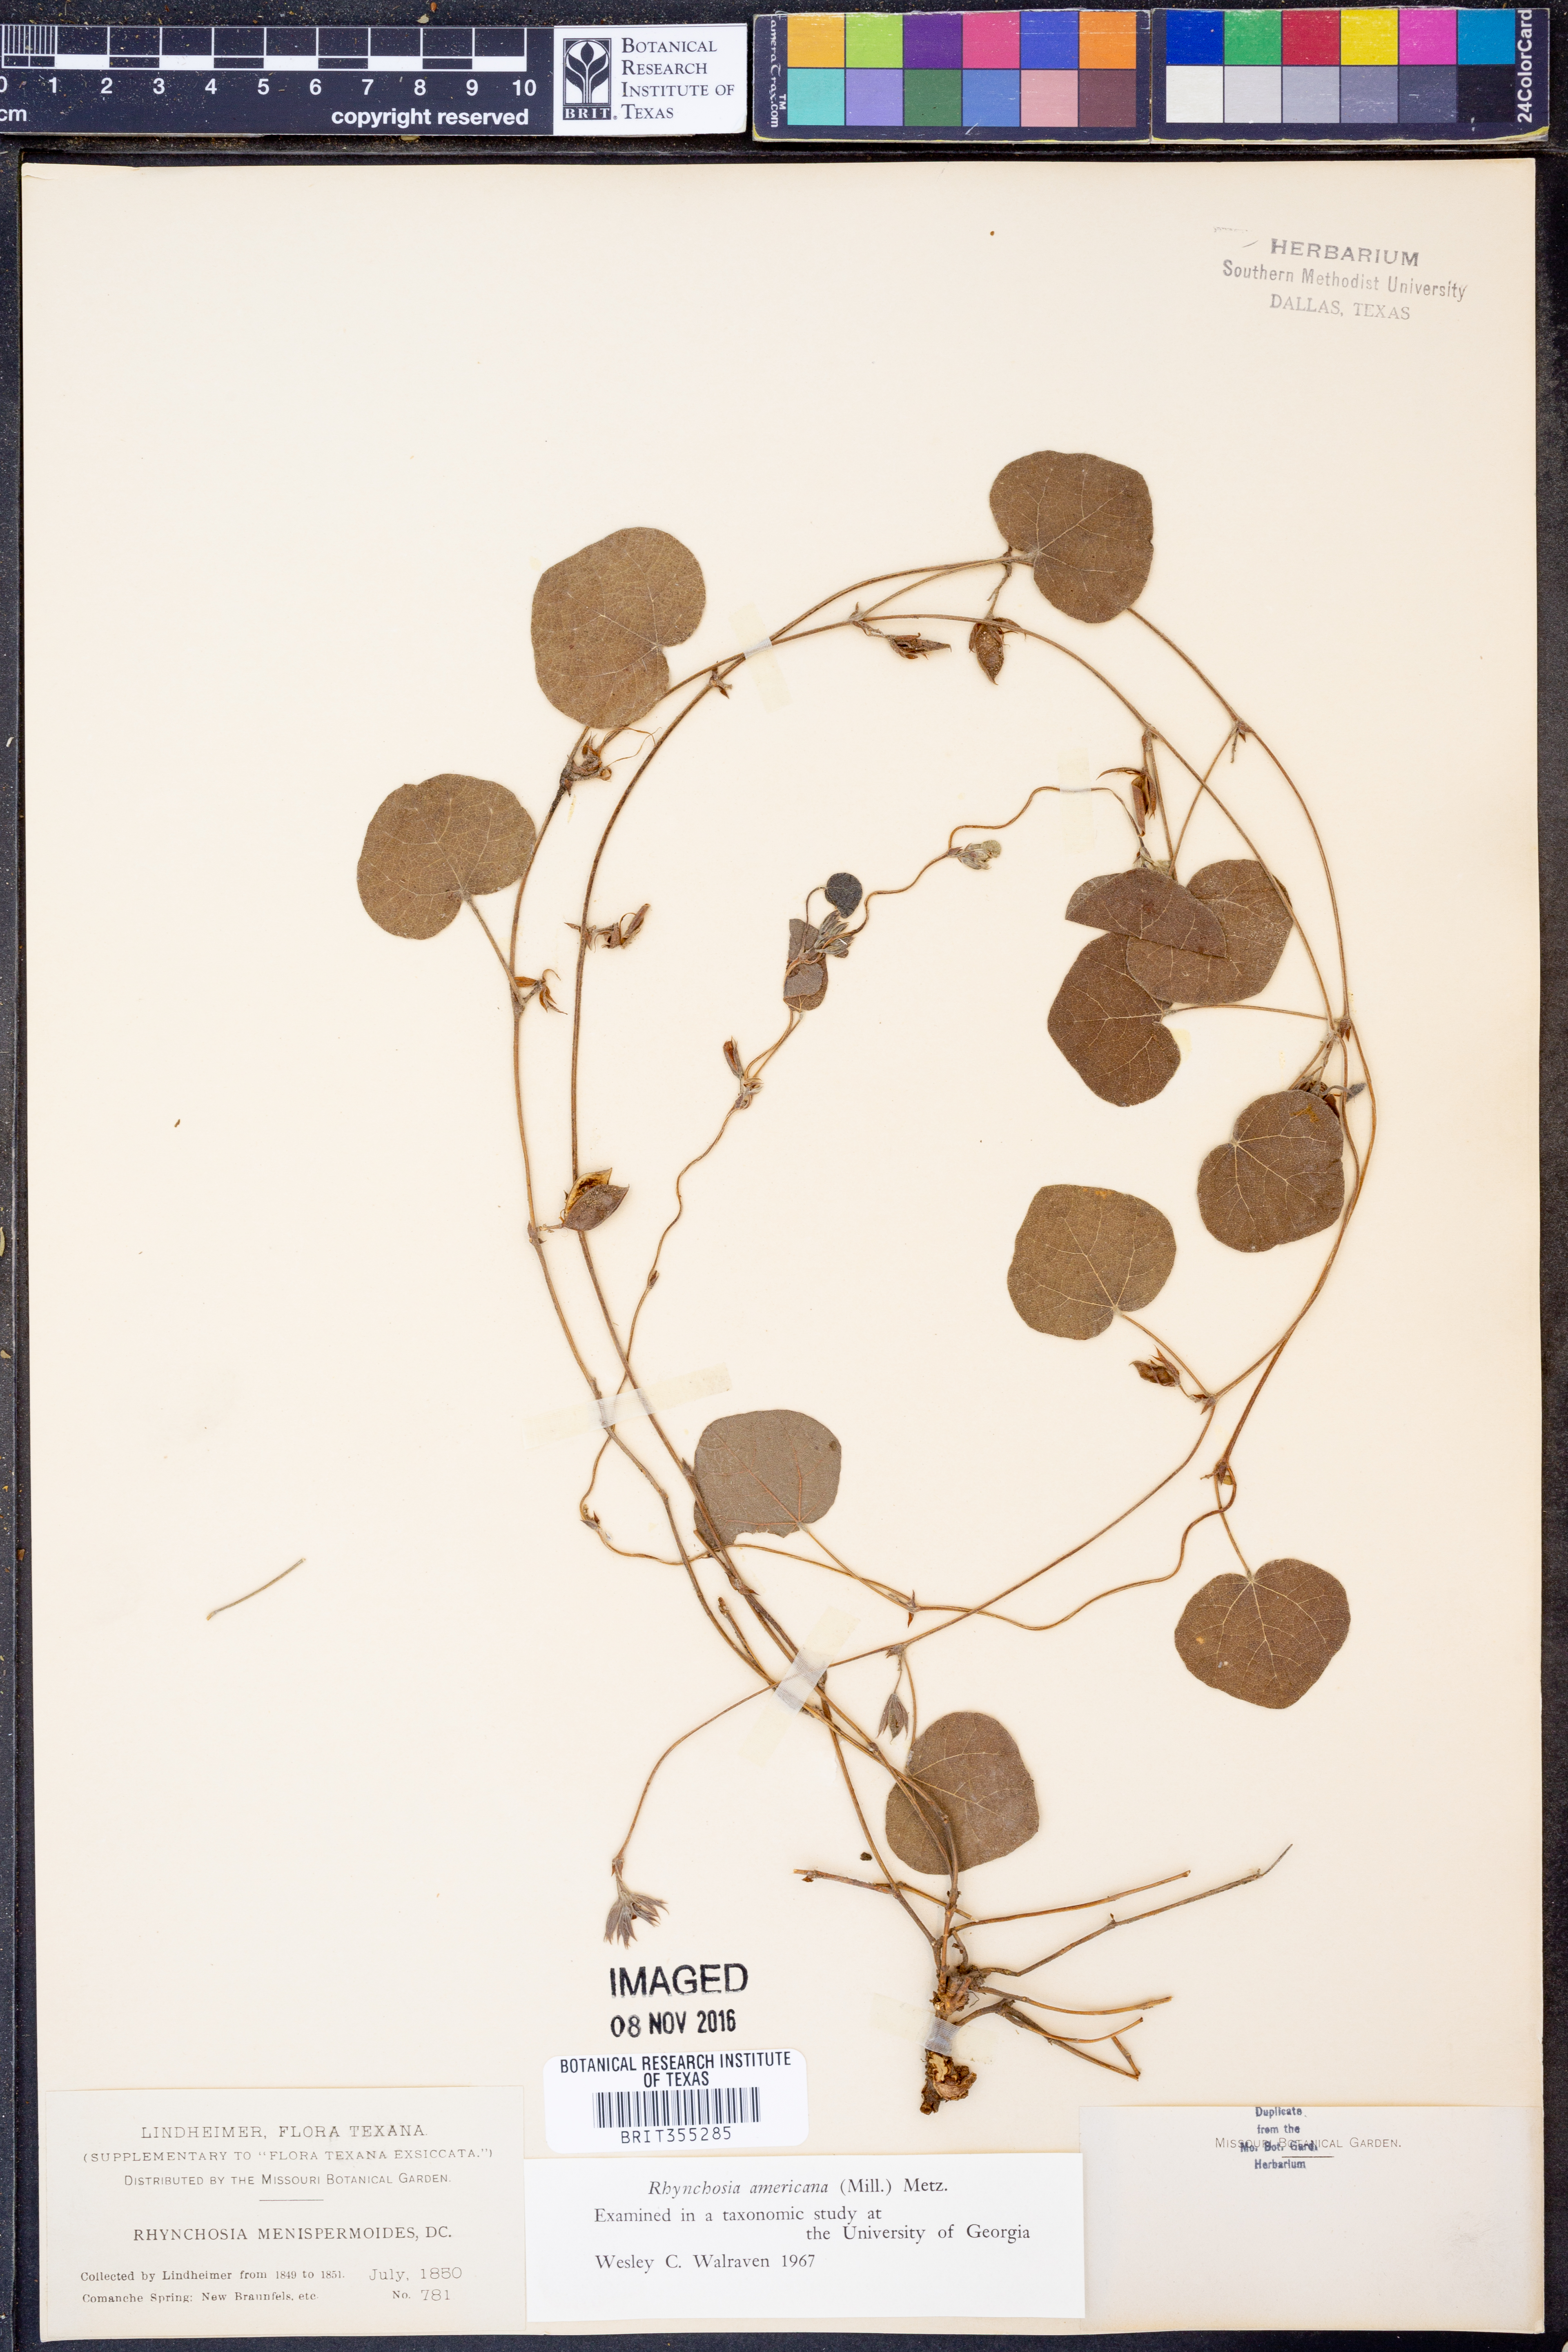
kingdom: Plantae
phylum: Tracheophyta
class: Magnoliopsida
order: Fabales
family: Fabaceae
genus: Rhynchosia
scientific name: Rhynchosia americana
